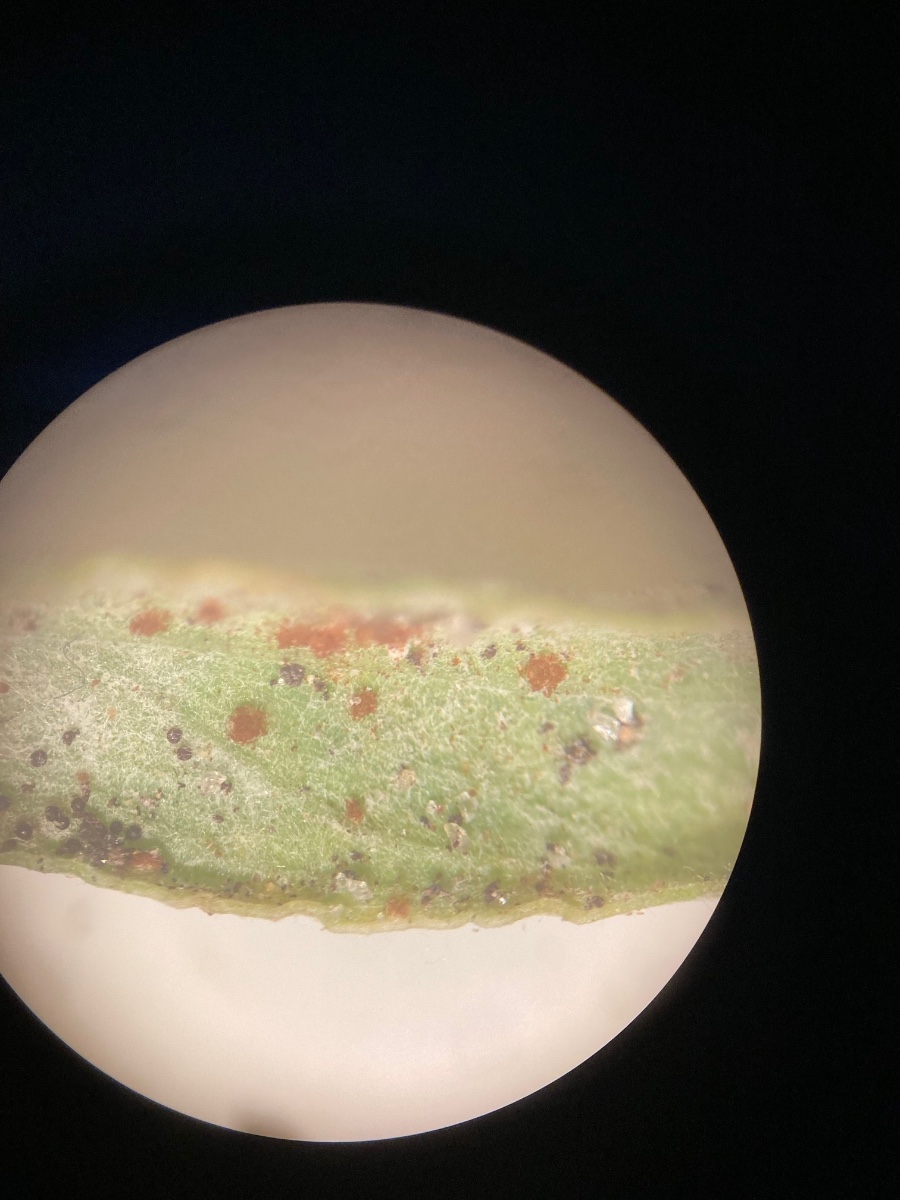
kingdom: Fungi
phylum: Basidiomycota
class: Pucciniomycetes
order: Pucciniales
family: Pucciniaceae
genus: Uromyces
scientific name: Uromyces polygoni-avicularis
